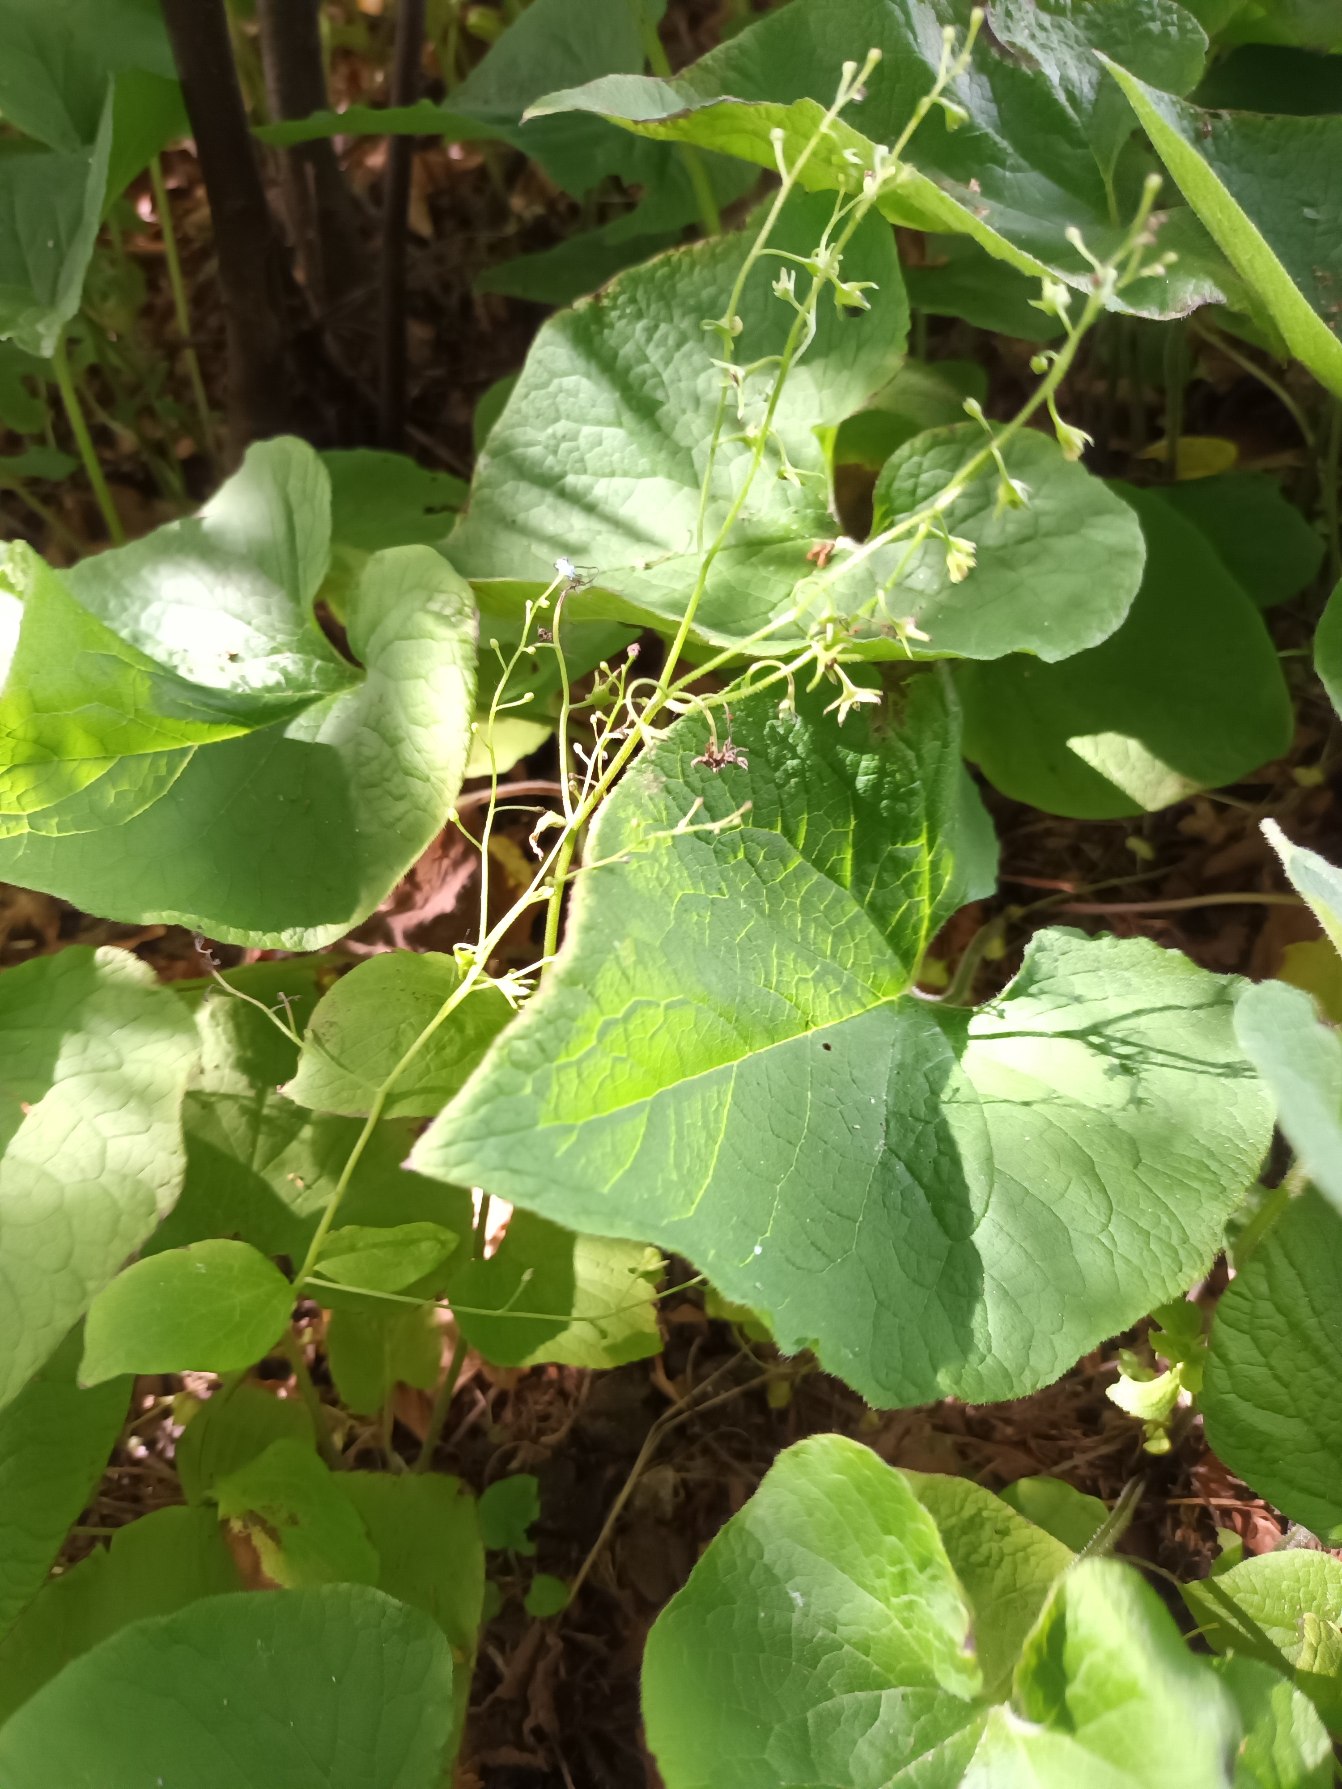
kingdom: Plantae
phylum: Tracheophyta
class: Magnoliopsida
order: Boraginales
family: Boraginaceae
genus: Brunnera
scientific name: Brunnera macrophylla
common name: Kærmindesøster
